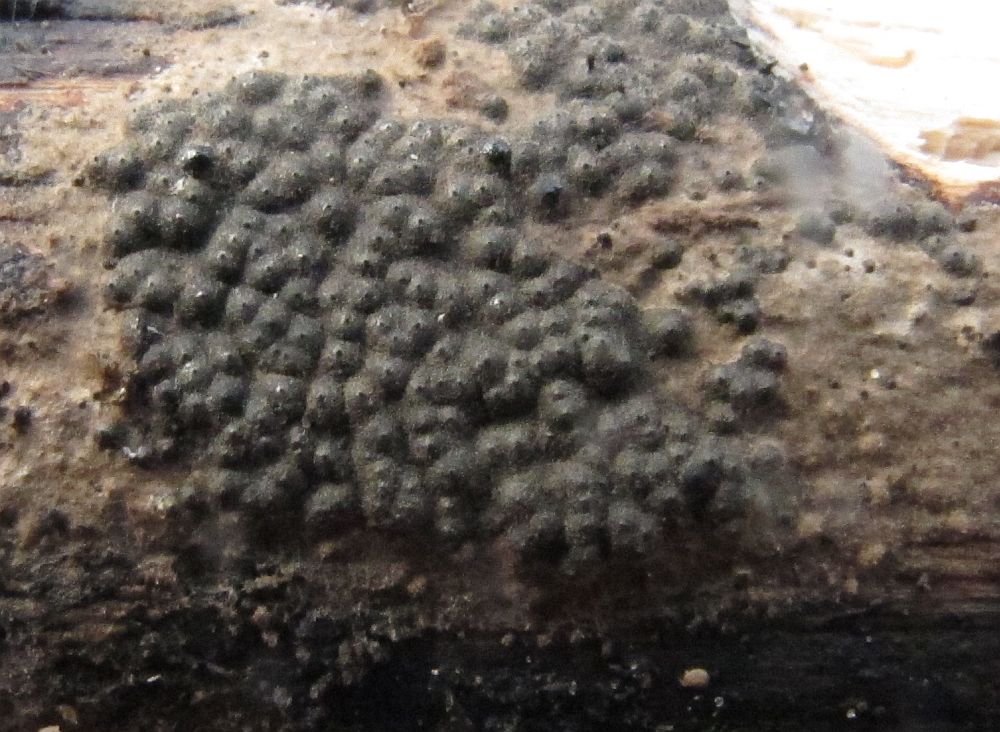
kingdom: Fungi
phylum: Ascomycota
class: Sordariomycetes
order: Xylariales
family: Xylariaceae
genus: Nemania
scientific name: Nemania carbonacea
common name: kulsort kuldyne
